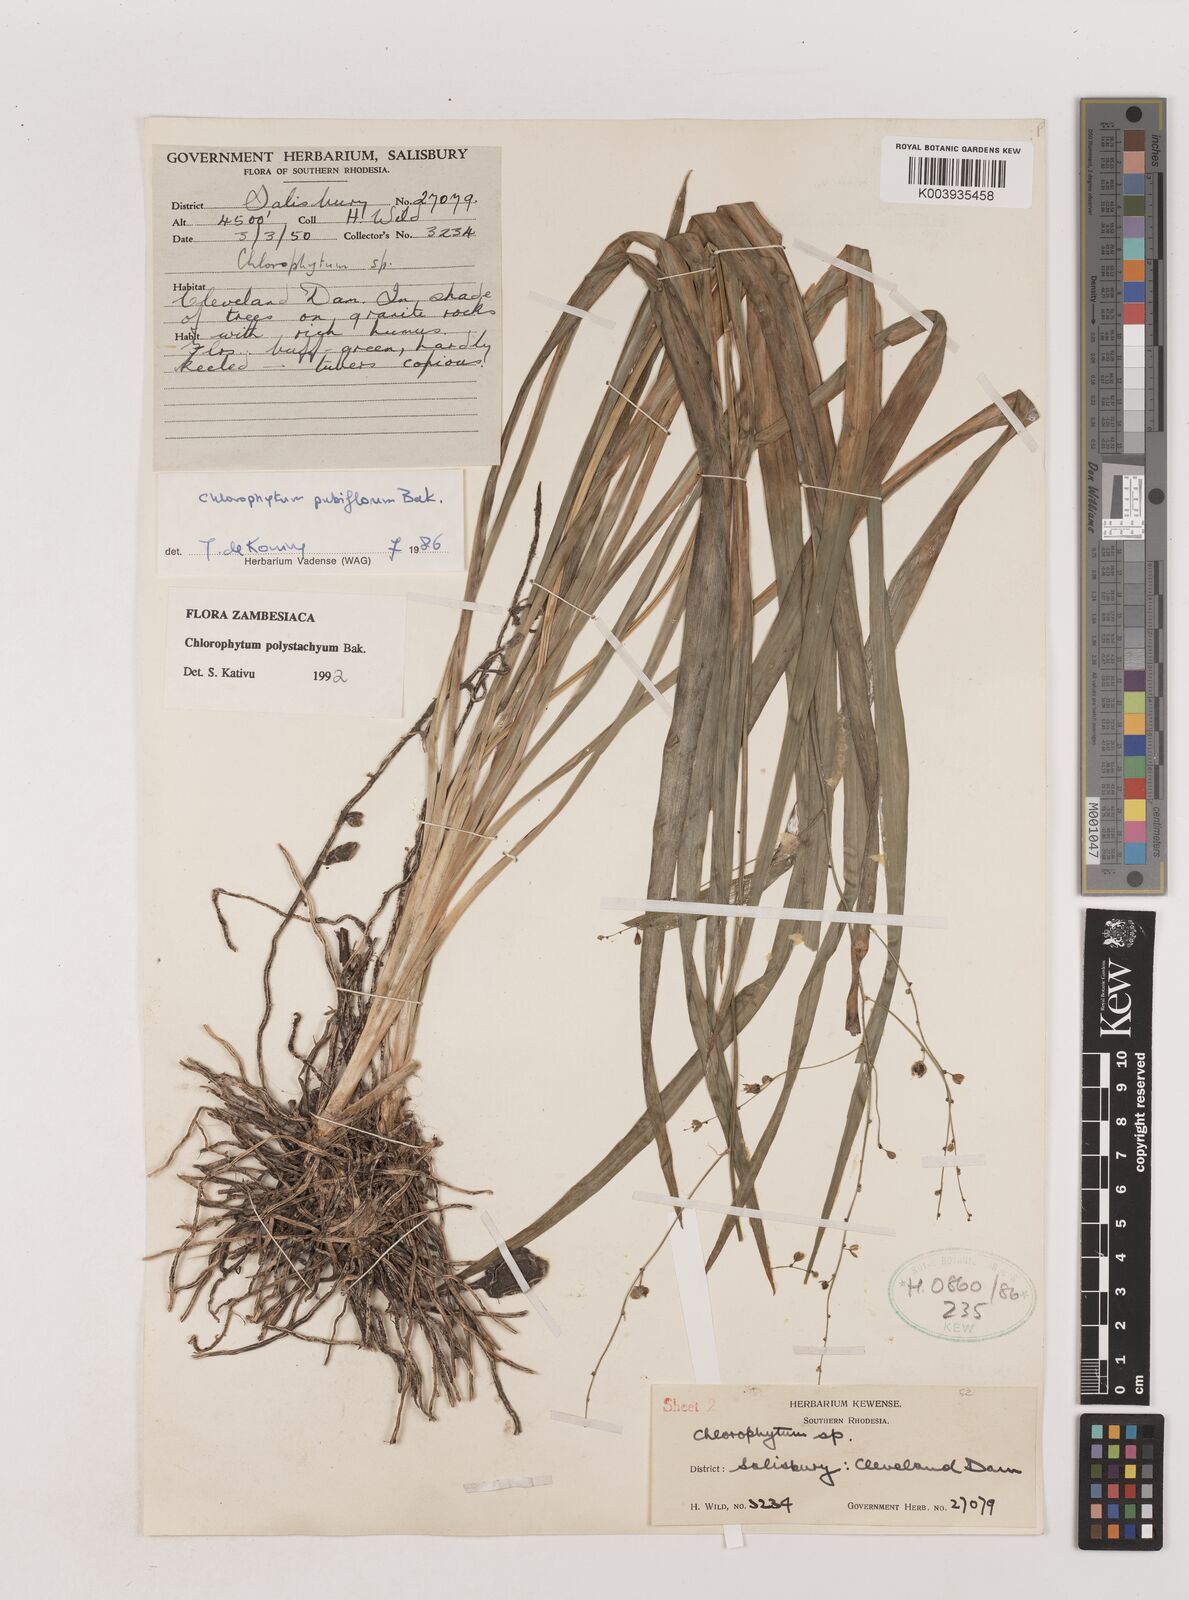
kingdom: Plantae
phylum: Tracheophyta
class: Liliopsida
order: Asparagales
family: Asparagaceae
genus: Chlorophytum
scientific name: Chlorophytum polystachys
